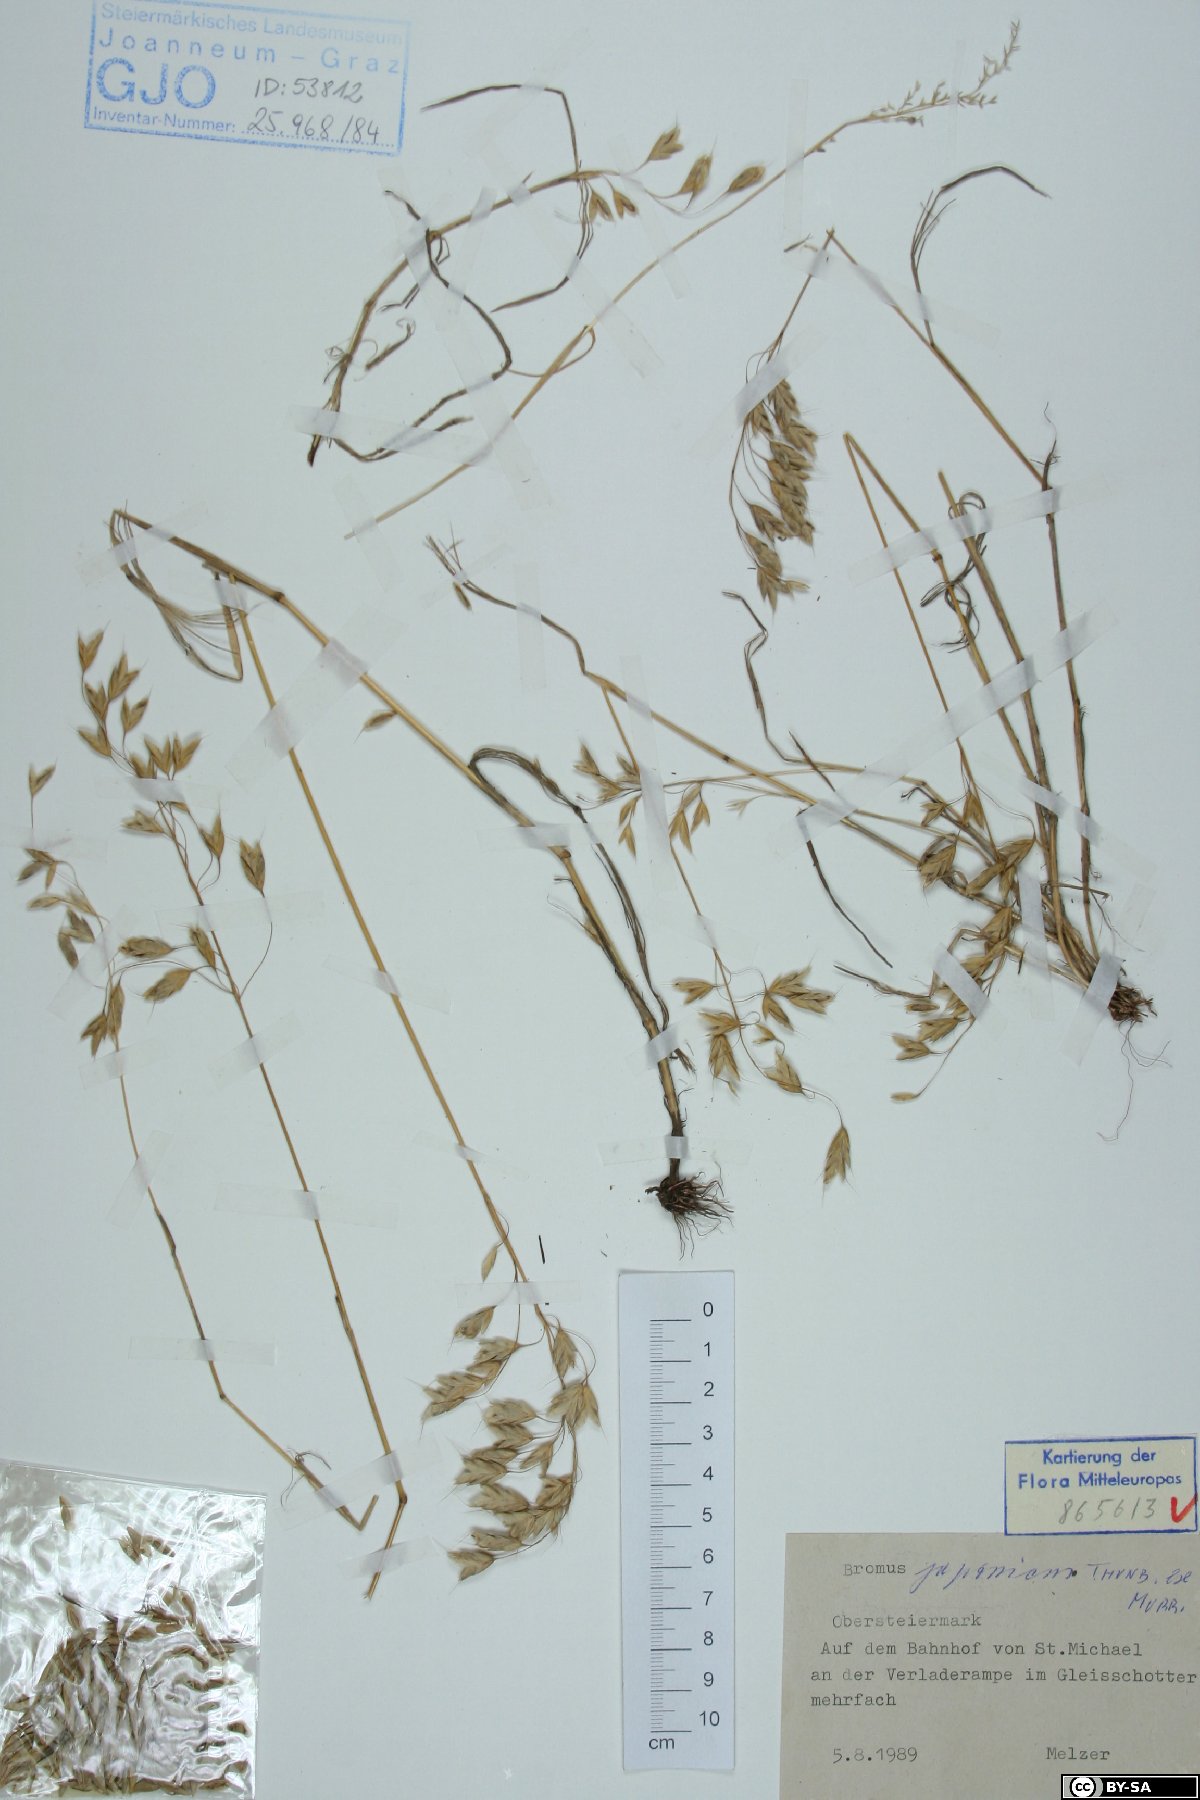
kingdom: Plantae
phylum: Tracheophyta
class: Liliopsida
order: Poales
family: Poaceae
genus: Bromus
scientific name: Bromus japonicus
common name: Japanese brome
